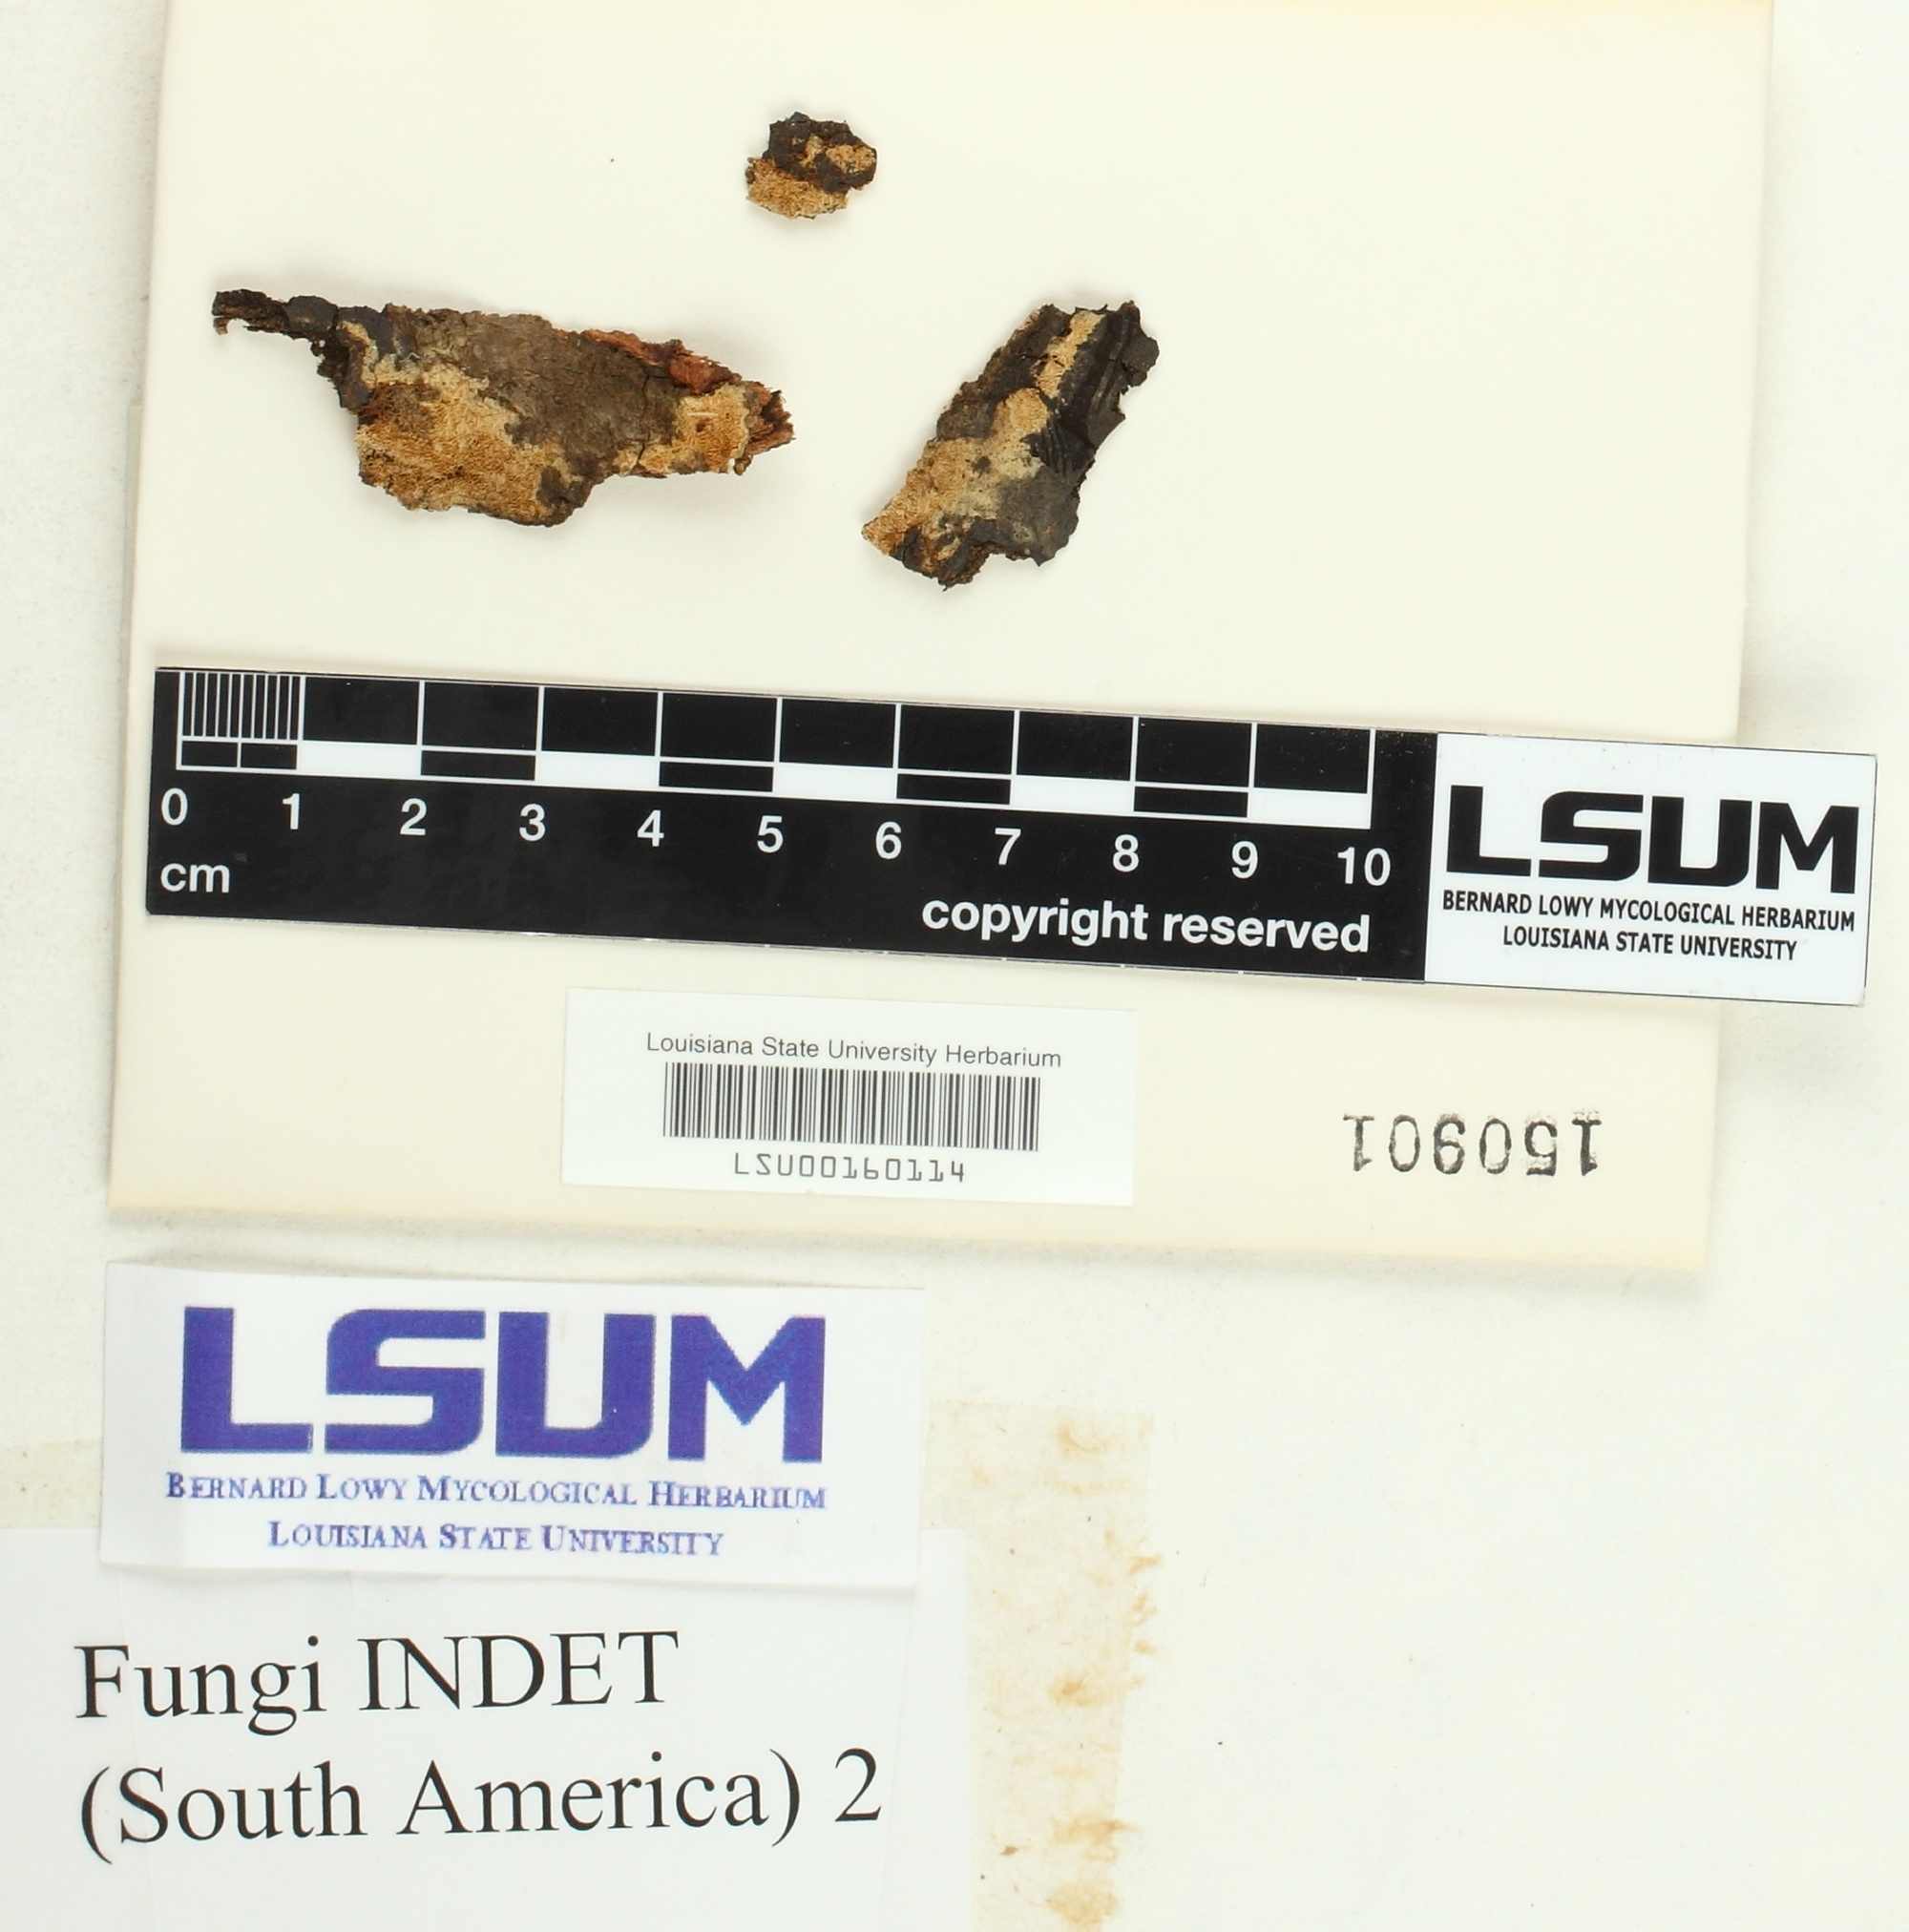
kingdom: Fungi
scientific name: Fungi
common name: Fungi
